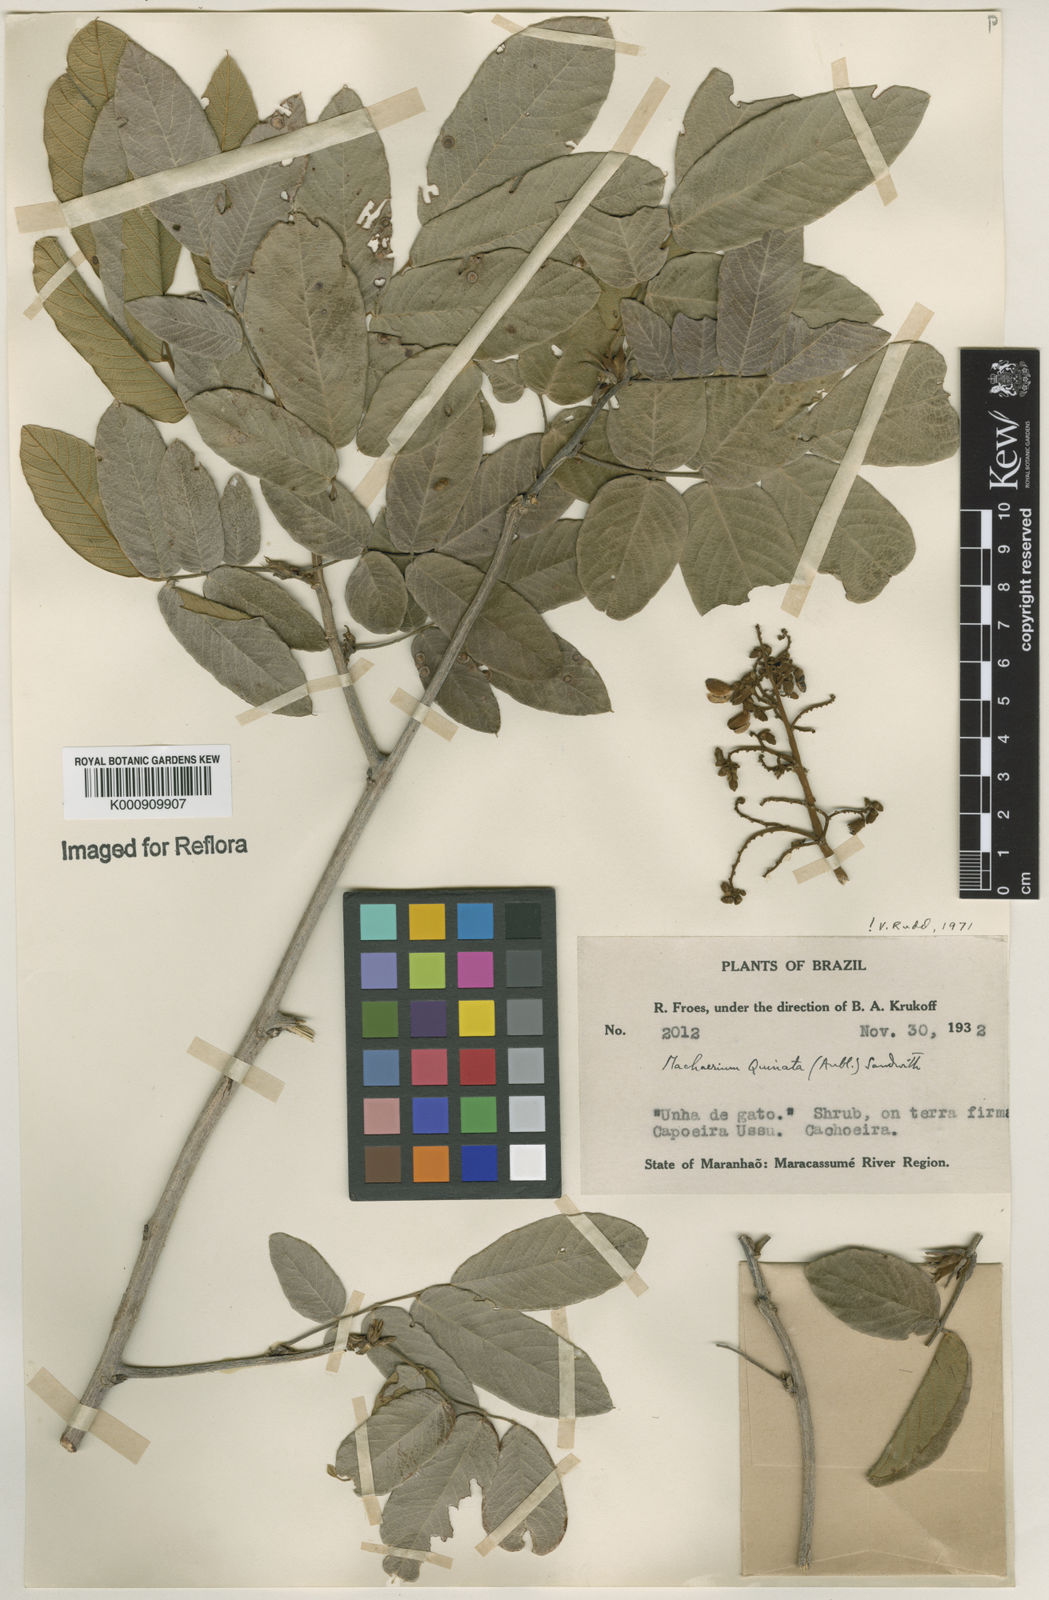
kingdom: Plantae
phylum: Tracheophyta
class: Magnoliopsida
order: Fabales
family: Fabaceae
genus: Machaerium
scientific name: Machaerium quinata
